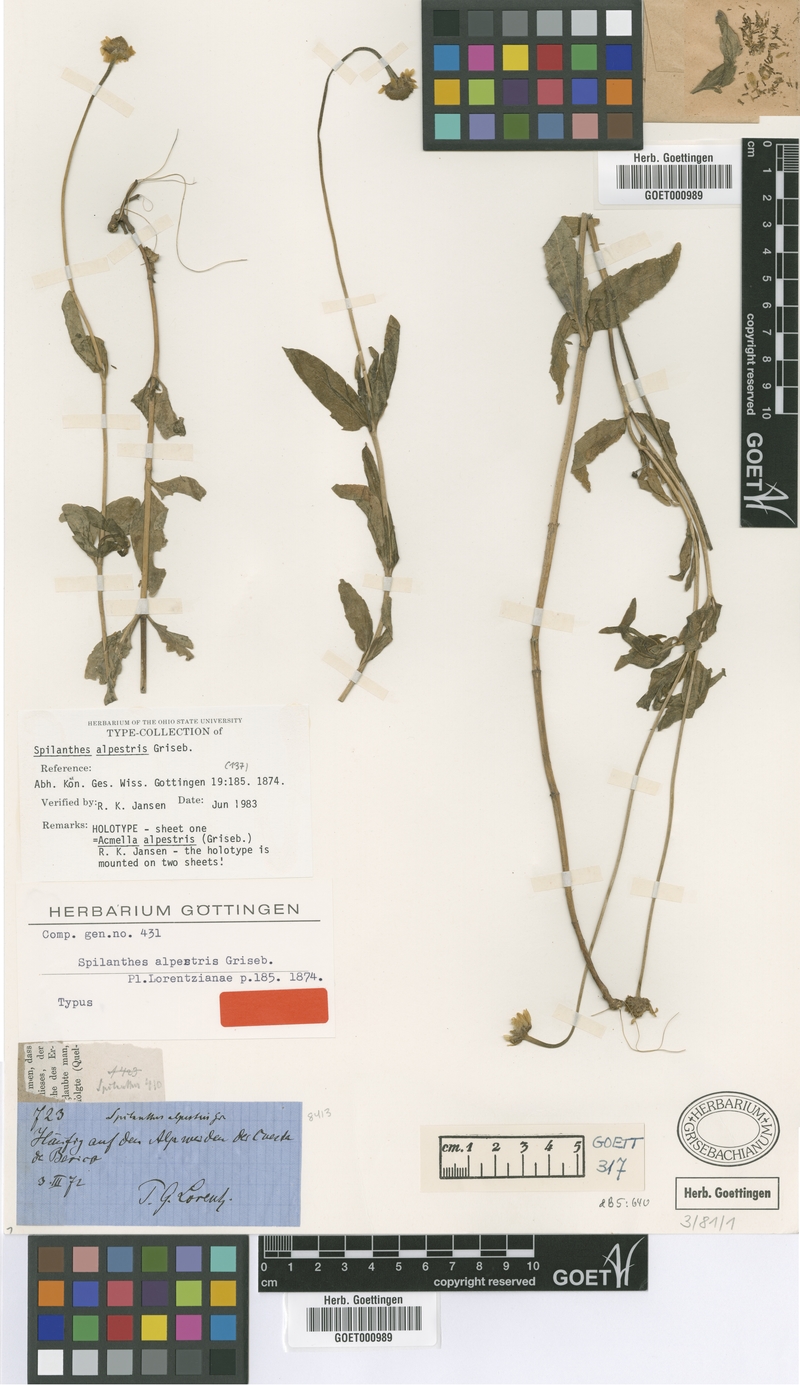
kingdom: Plantae
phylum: Tracheophyta
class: Magnoliopsida
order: Asterales
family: Asteraceae
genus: Acmella
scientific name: Acmella alpestris
